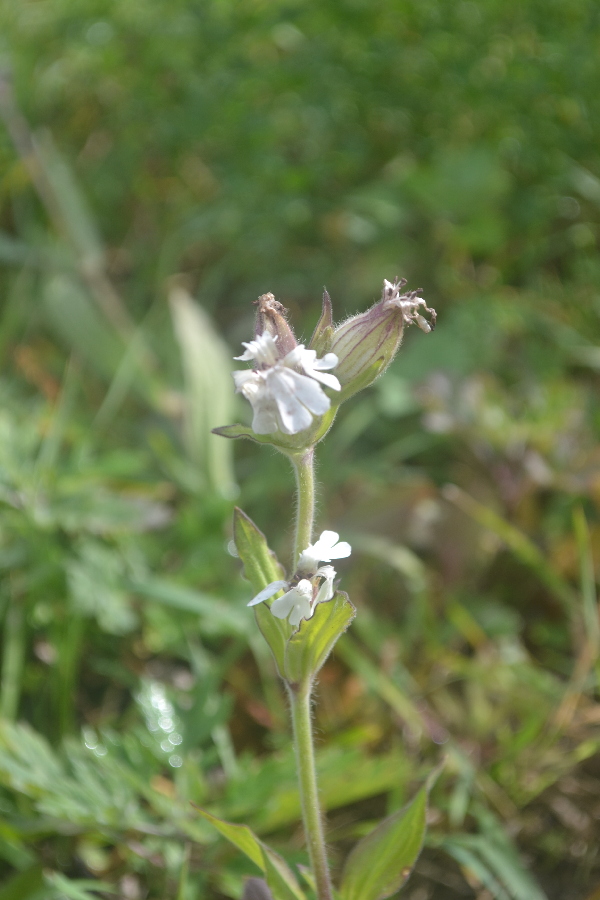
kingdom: Plantae
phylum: Tracheophyta
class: Magnoliopsida
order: Caryophyllales
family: Caryophyllaceae
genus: Silene
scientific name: Silene latifolia
